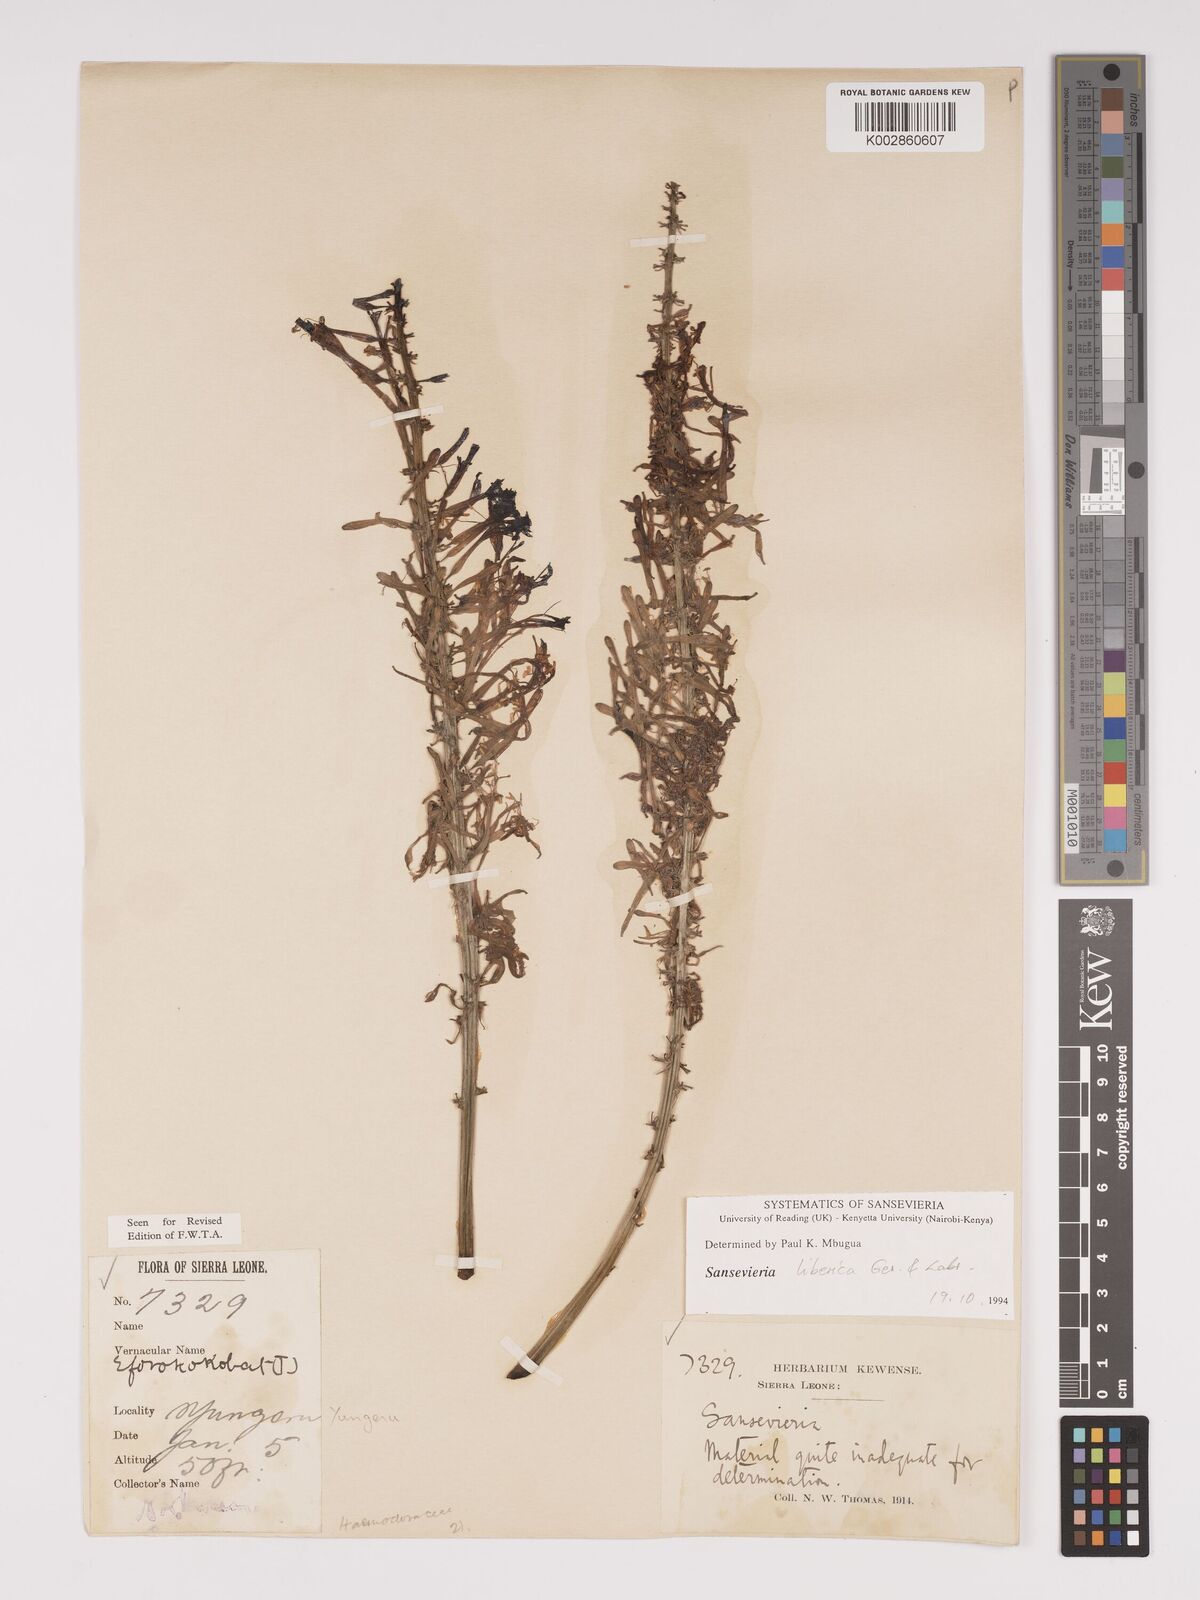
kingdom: Plantae
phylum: Tracheophyta
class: Liliopsida
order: Asparagales
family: Asparagaceae
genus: Dracaena
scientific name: Dracaena liberica
